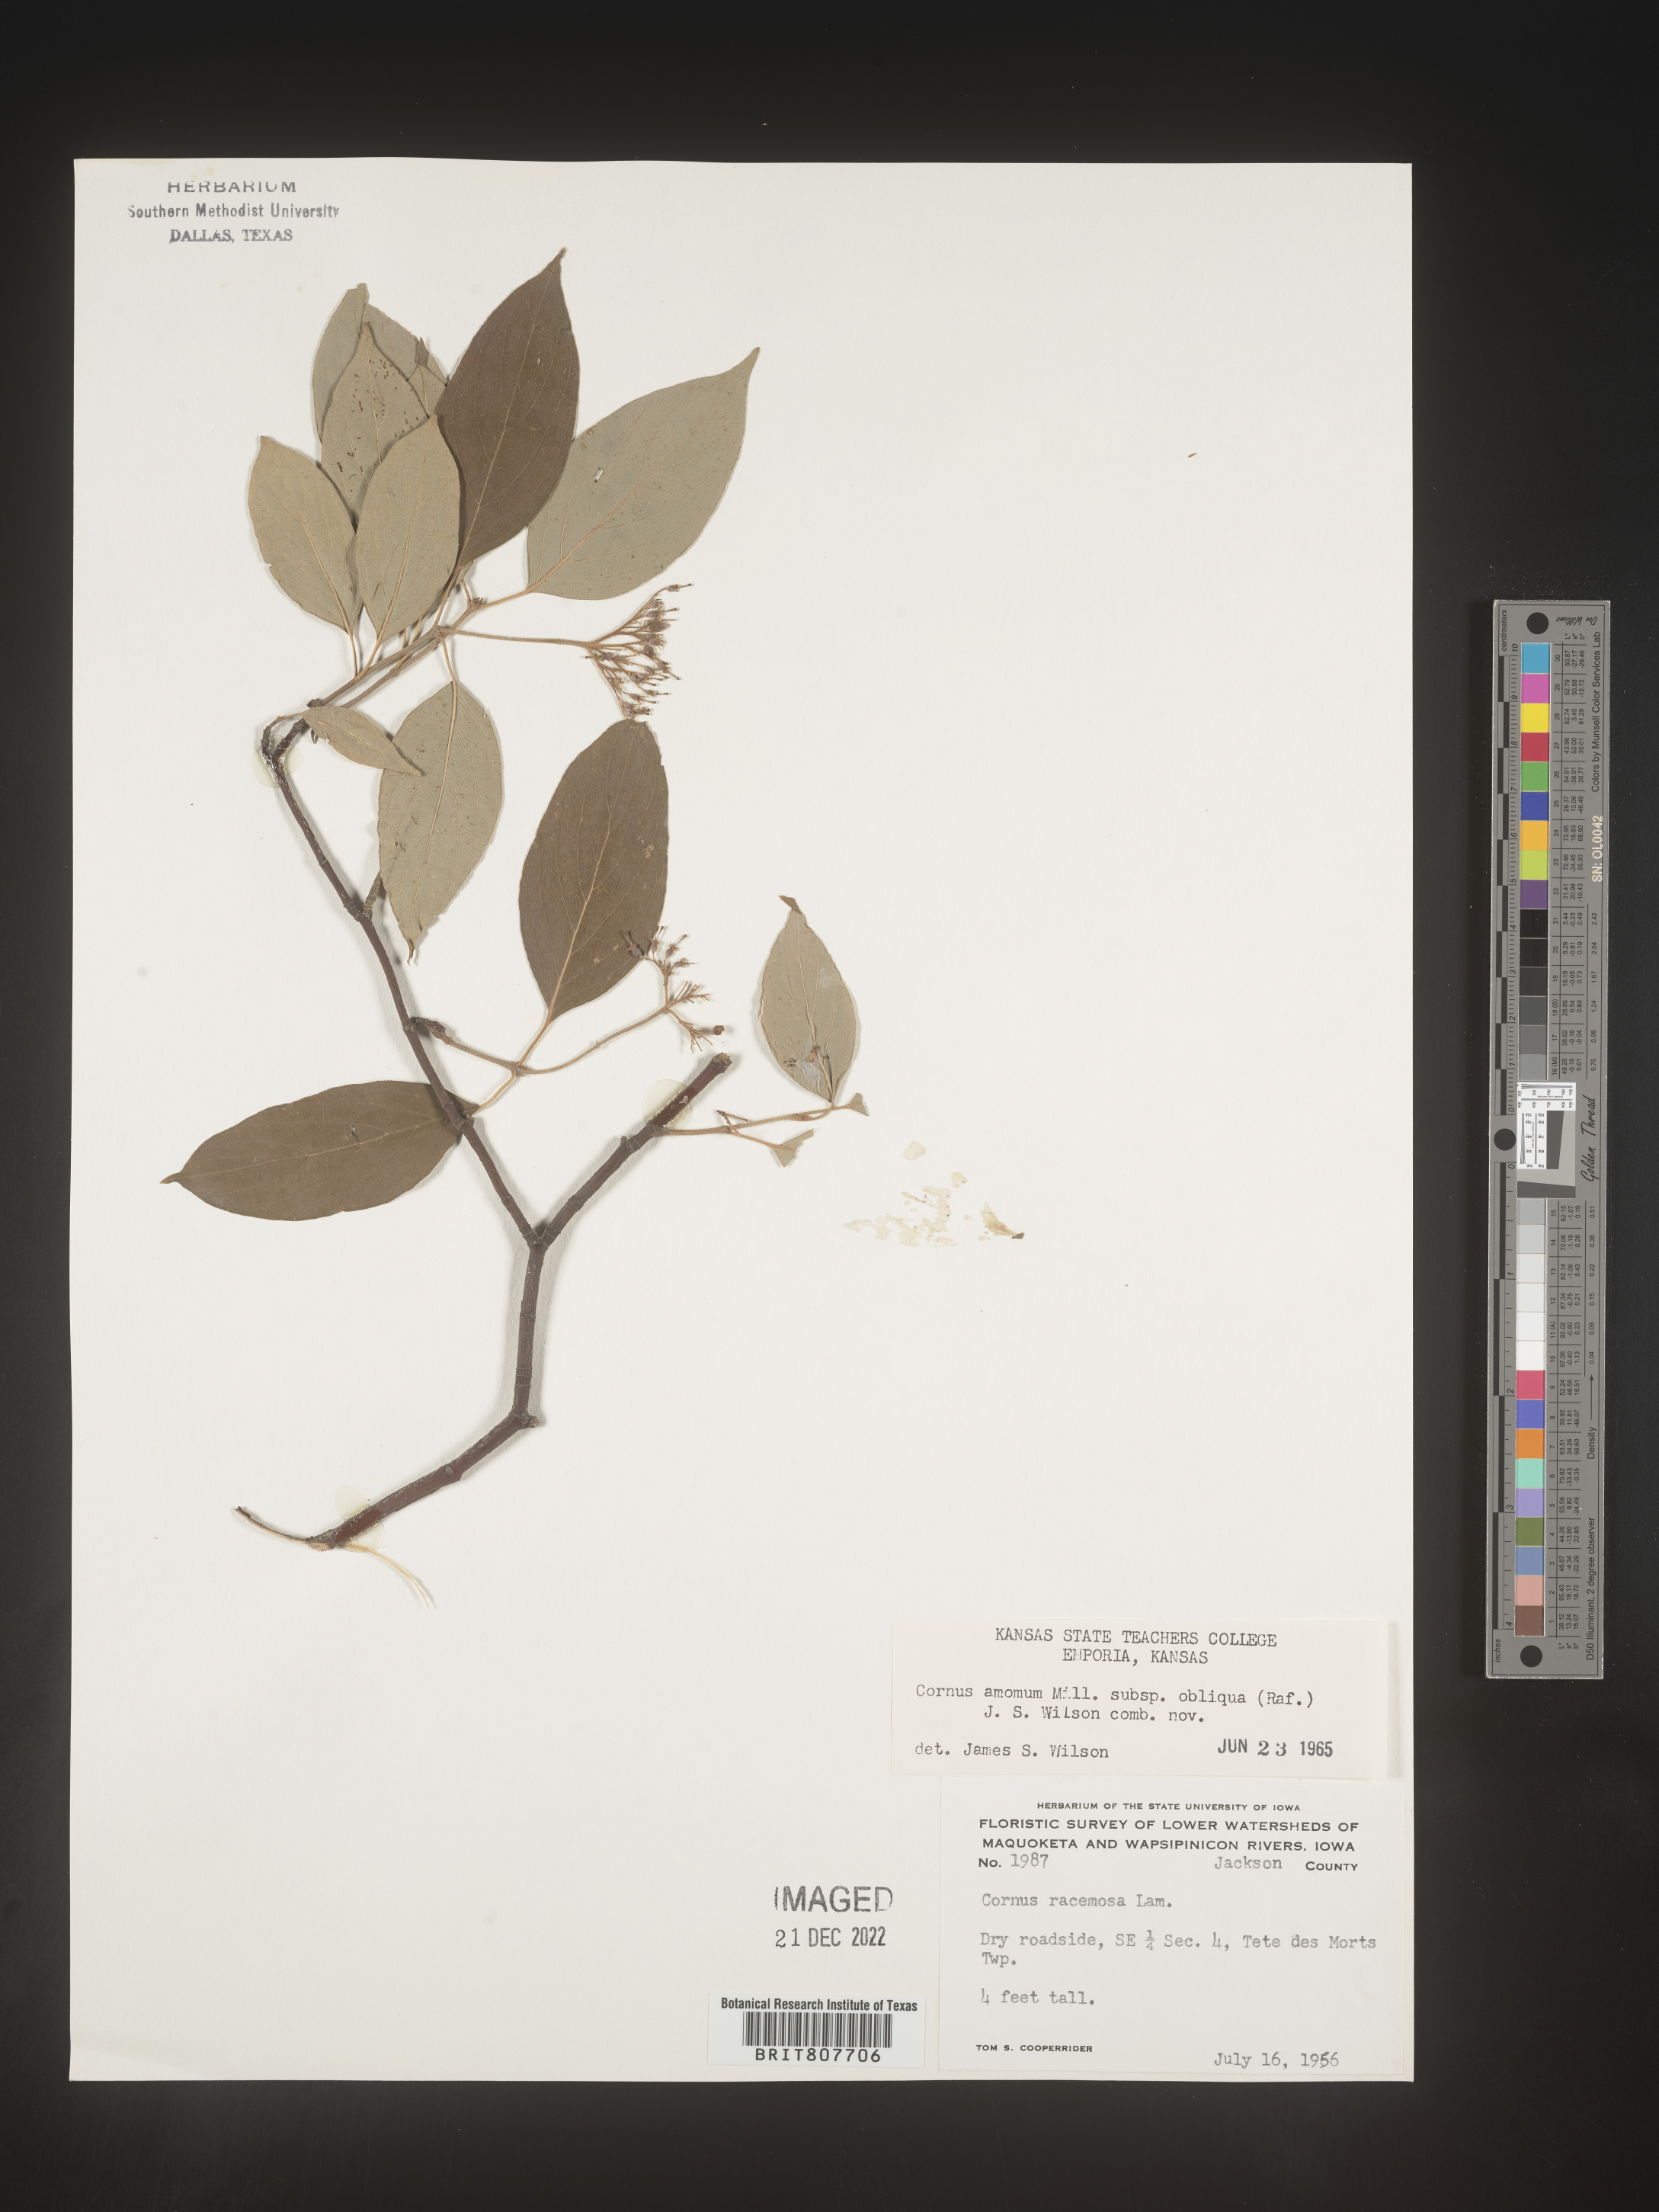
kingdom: Plantae
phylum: Tracheophyta
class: Magnoliopsida
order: Cornales
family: Cornaceae
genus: Cornus
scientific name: Cornus obliqua
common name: Pale dogwood
